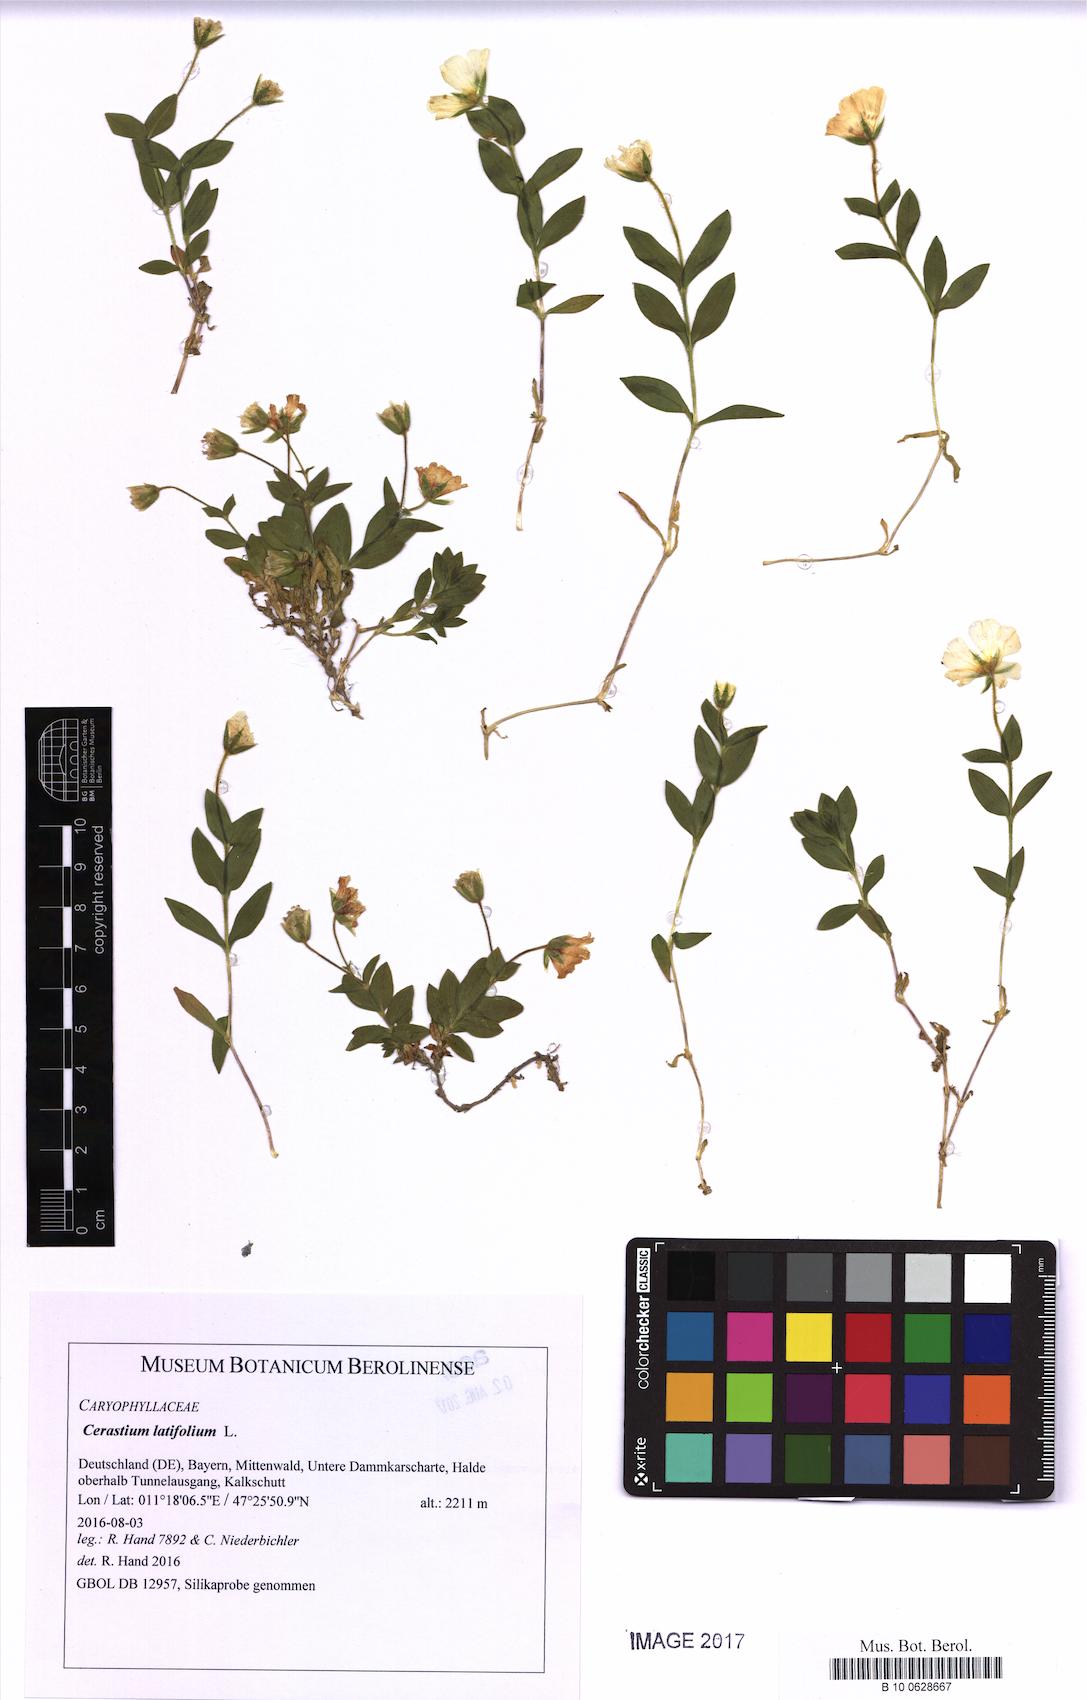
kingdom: Plantae
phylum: Tracheophyta
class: Magnoliopsida
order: Caryophyllales
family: Caryophyllaceae
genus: Cerastium
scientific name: Cerastium latifolium
